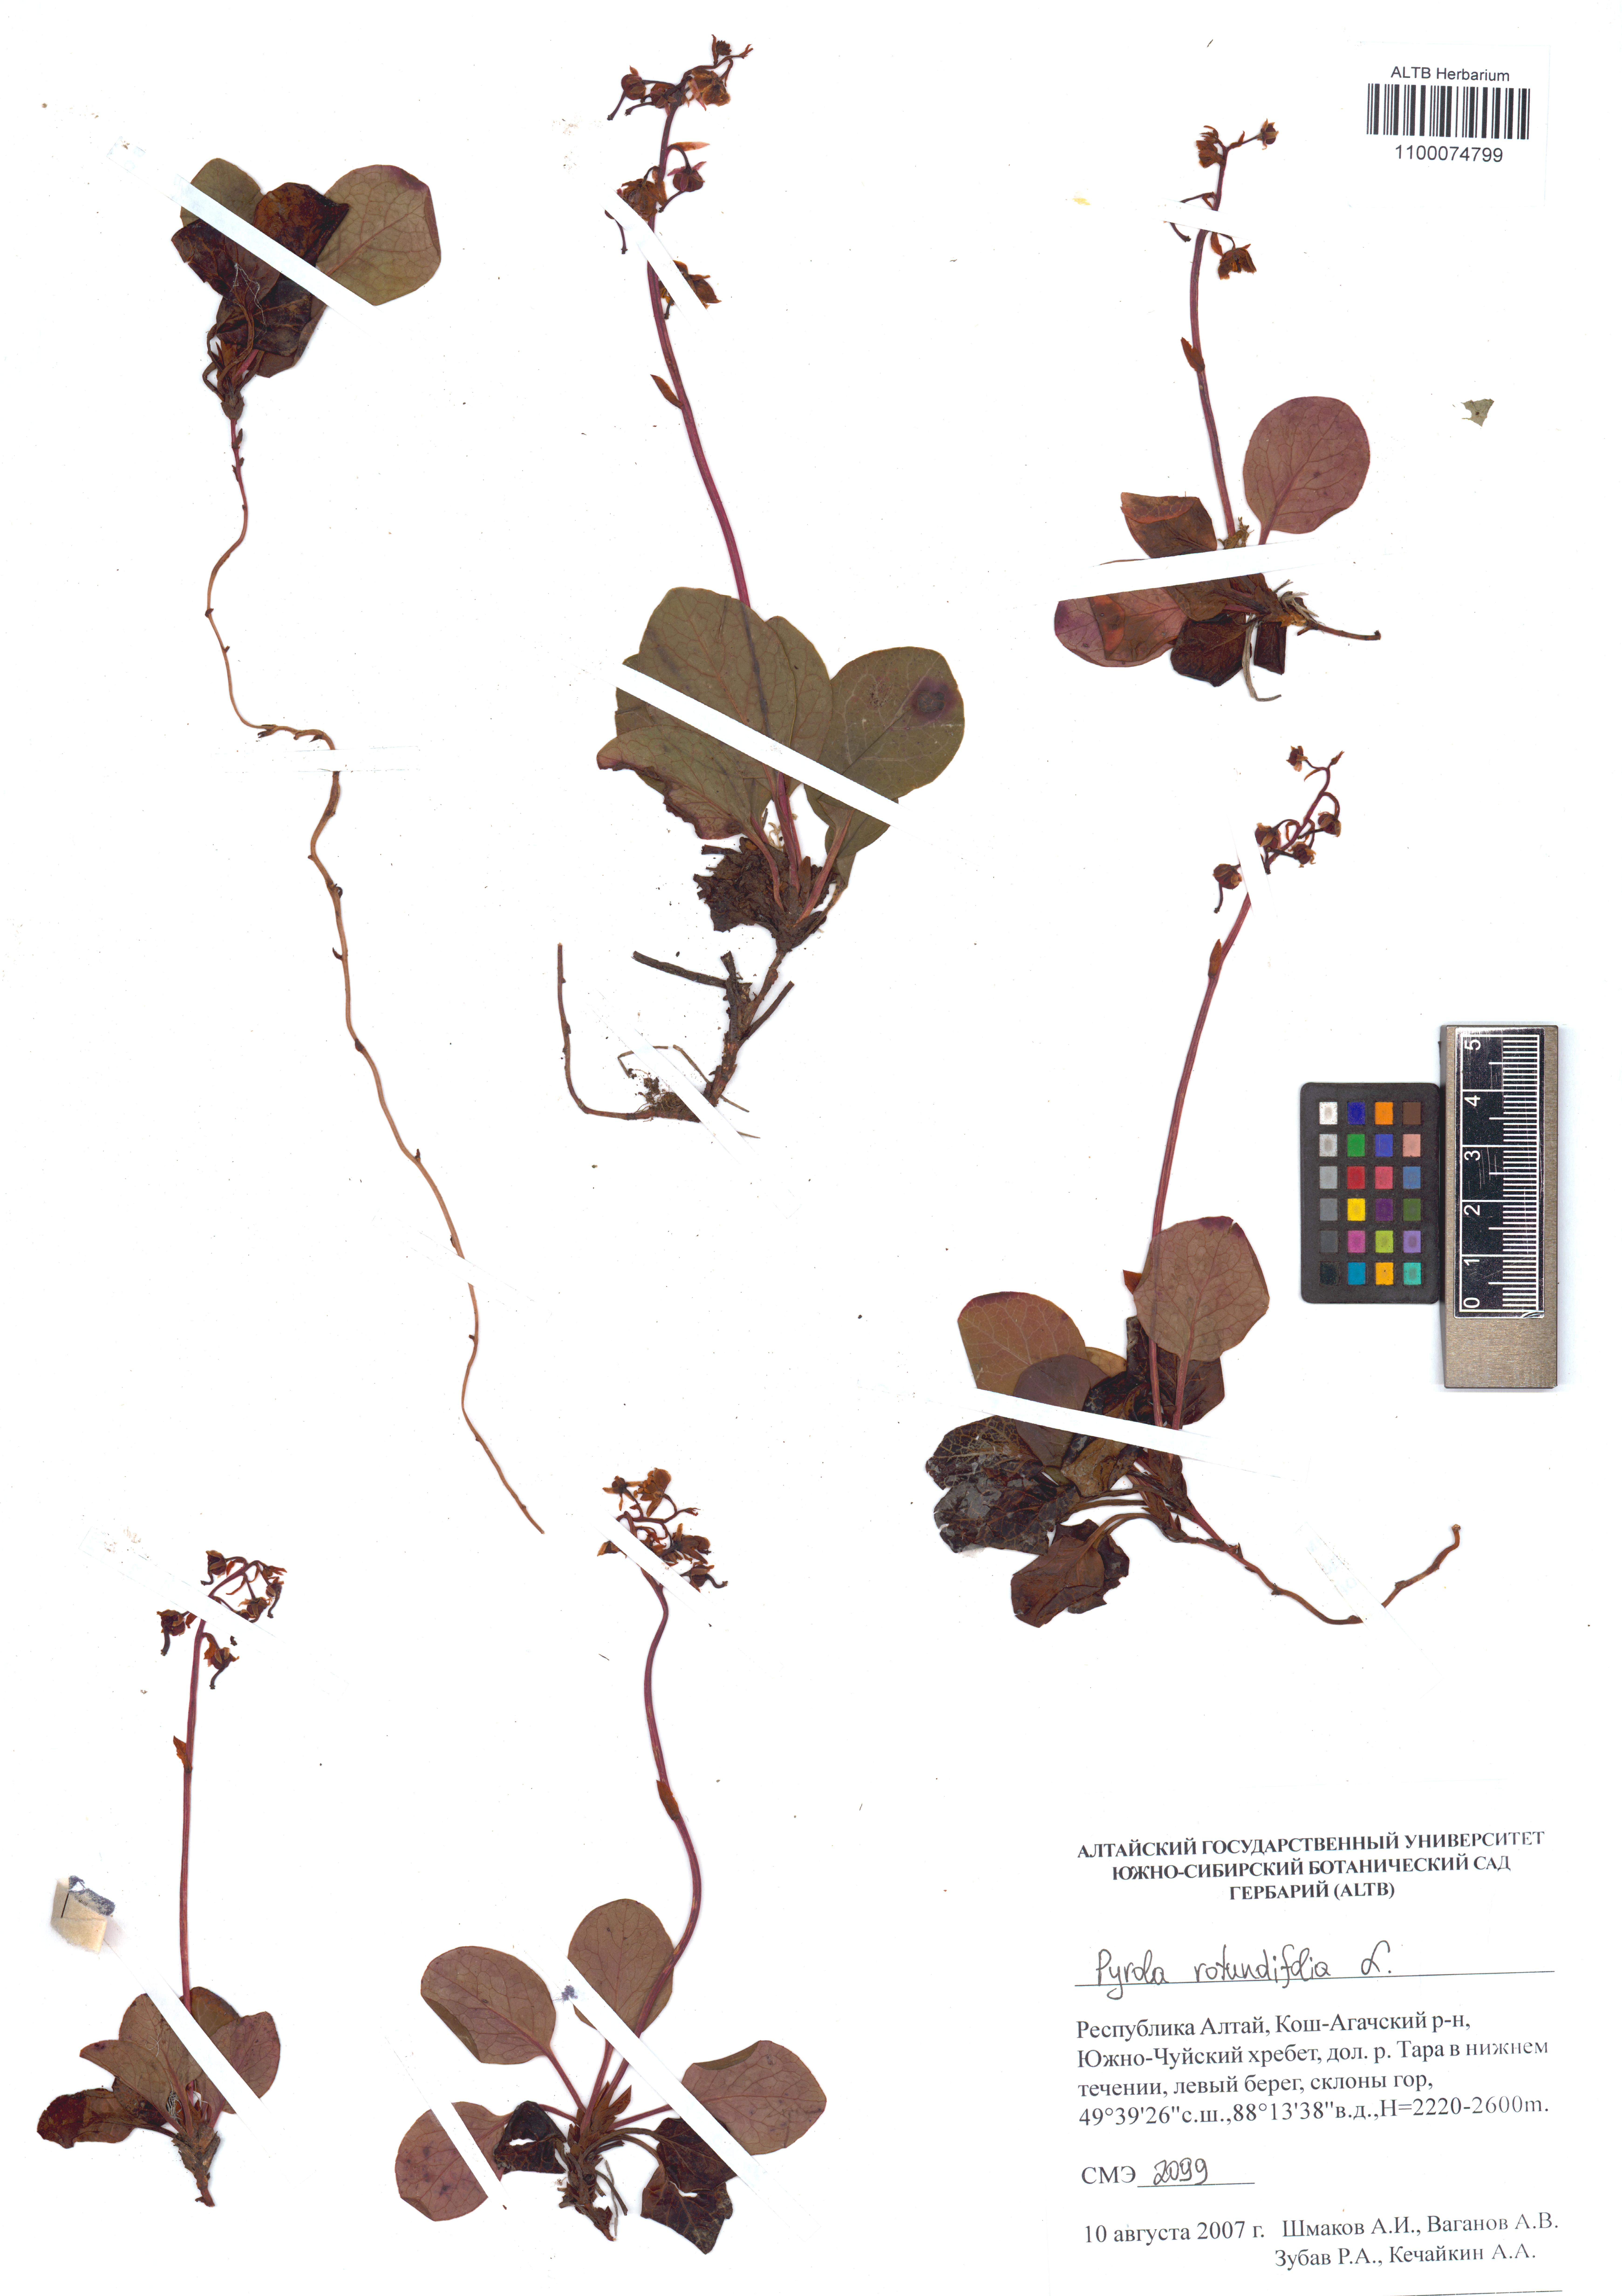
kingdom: Plantae
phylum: Tracheophyta
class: Magnoliopsida
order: Ericales
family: Ericaceae
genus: Pyrola
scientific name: Pyrola rotundifolia
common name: Round-leaved wintergreen
